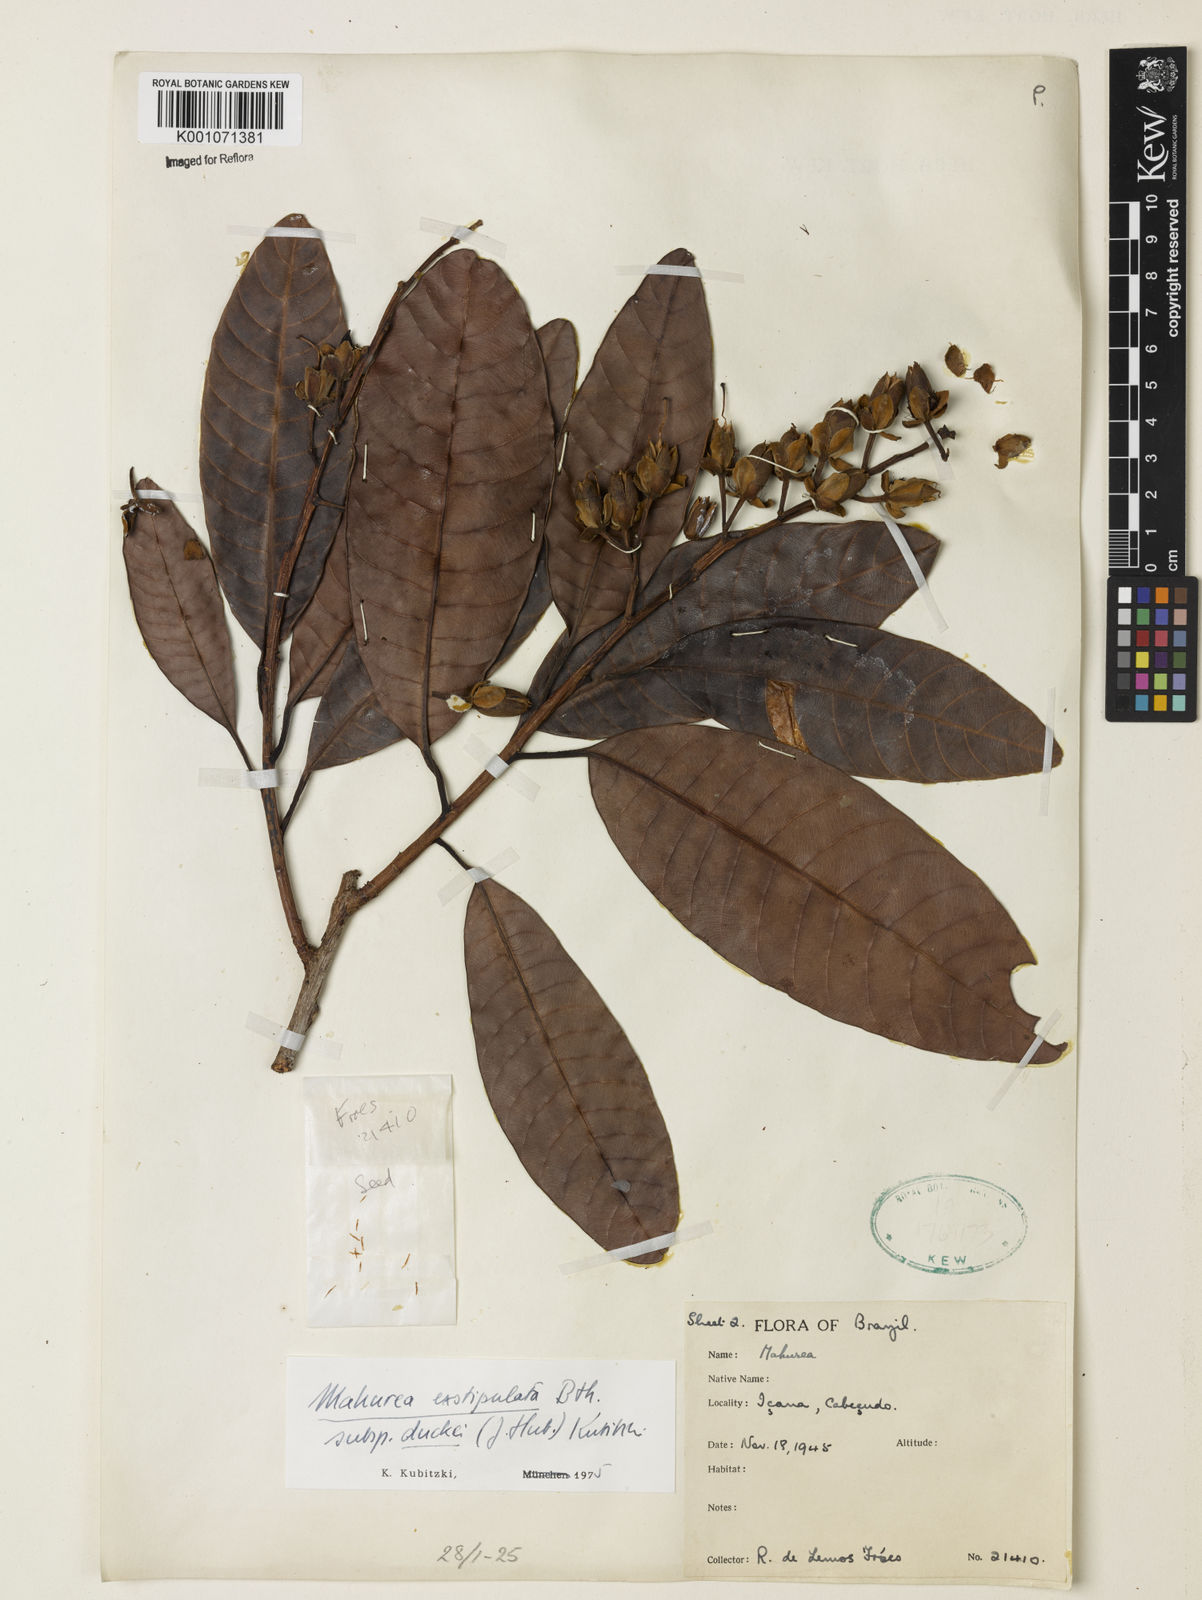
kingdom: Plantae
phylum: Tracheophyta
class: Magnoliopsida
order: Malpighiales
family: Calophyllaceae
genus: Mahurea
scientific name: Mahurea exstipulata
